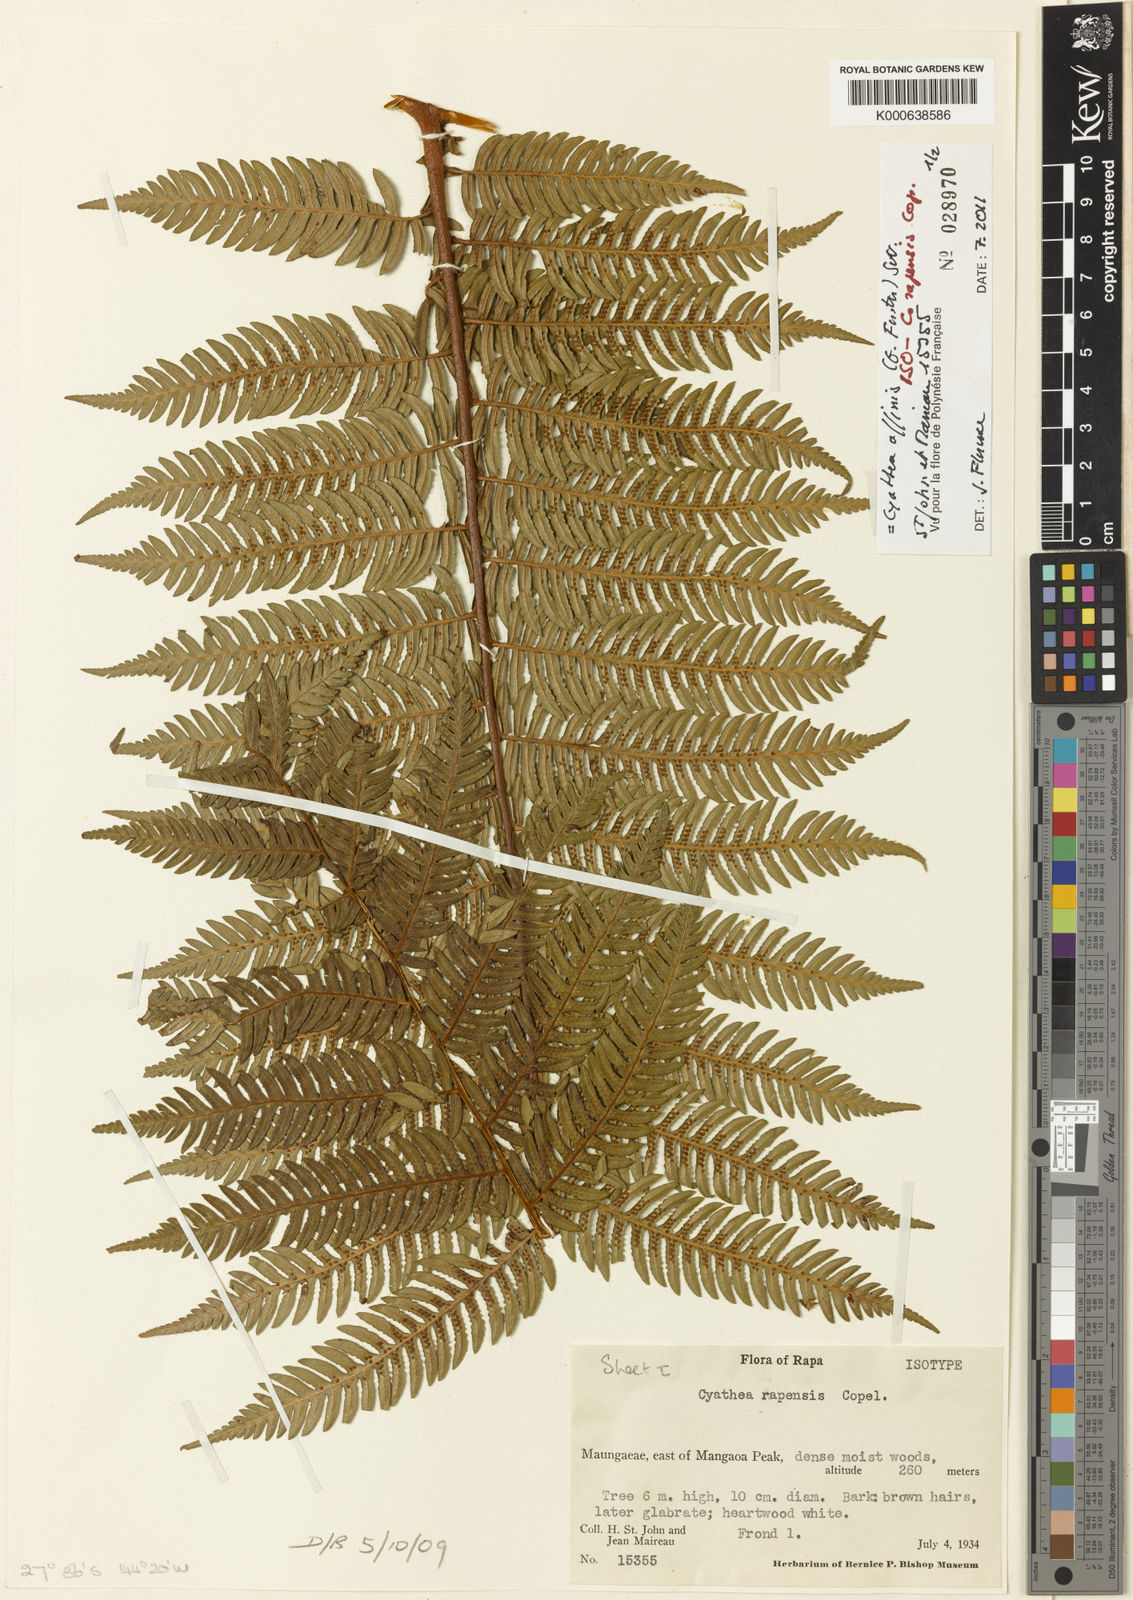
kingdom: Plantae
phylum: Tracheophyta
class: Polypodiopsida
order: Cyatheales
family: Cyatheaceae
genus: Alsophila
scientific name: Alsophila tahitensis
